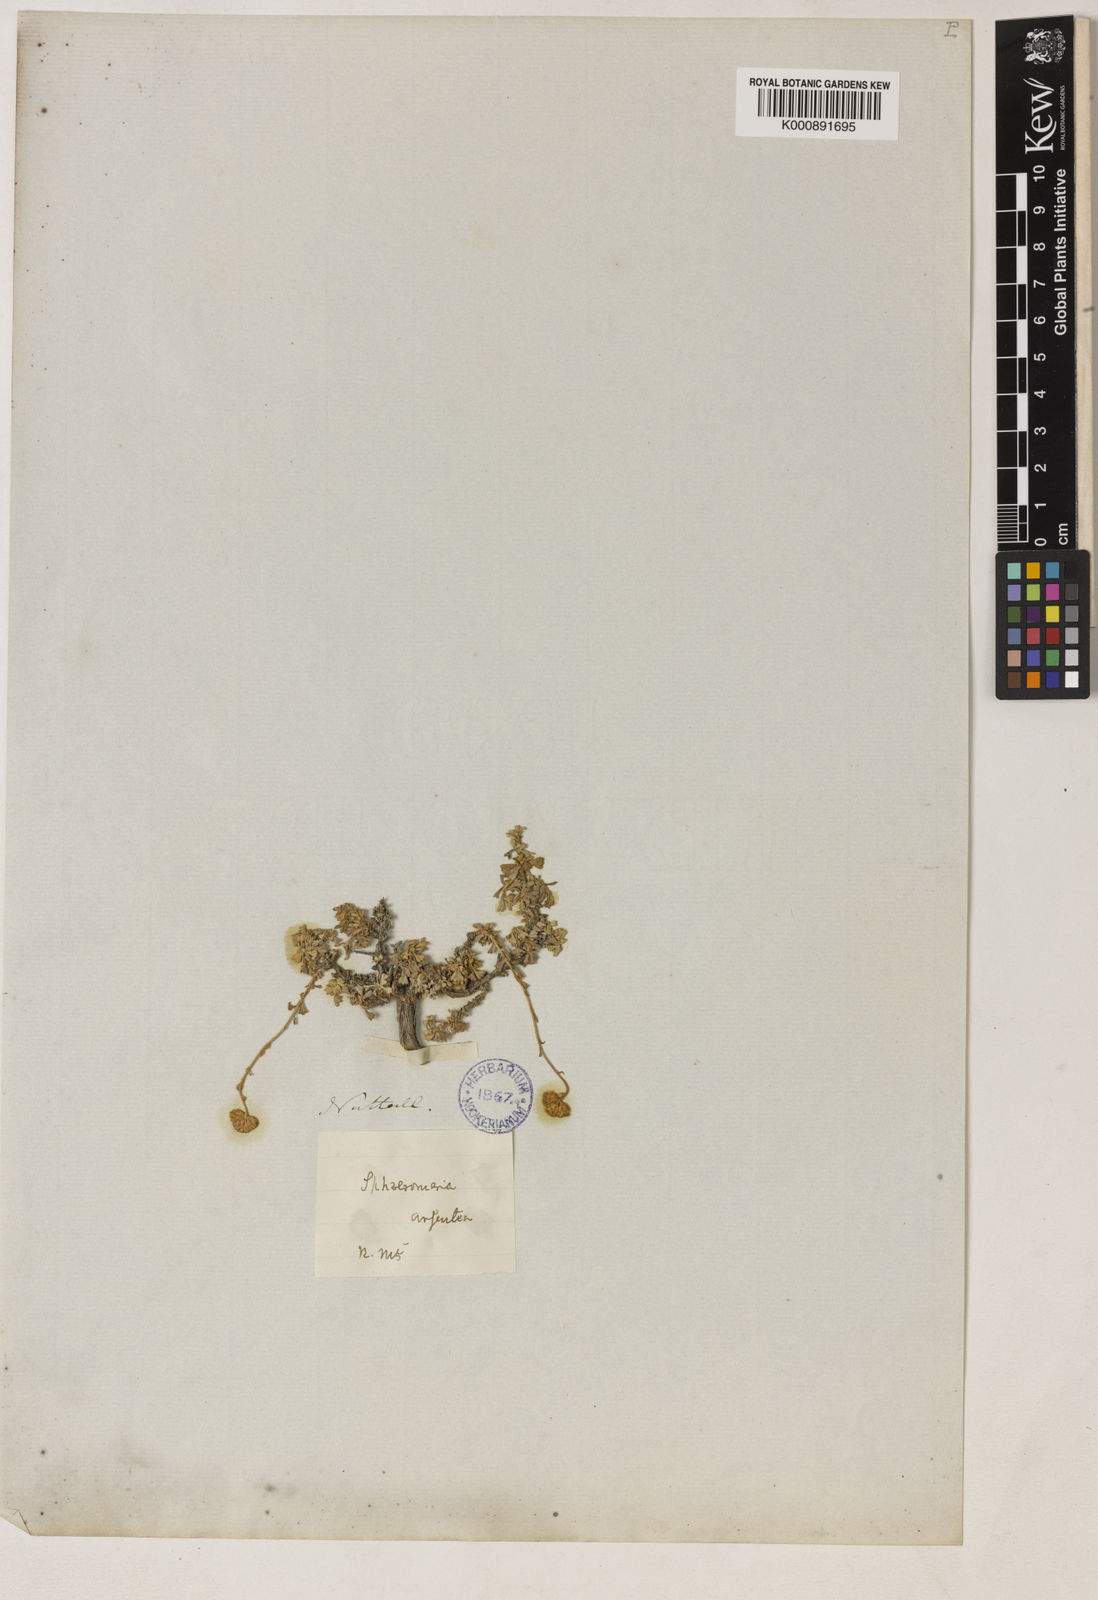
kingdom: Plantae
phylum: Tracheophyta
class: Magnoliopsida
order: Asterales
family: Asteraceae
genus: Artemisia
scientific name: Artemisia nuttallii
